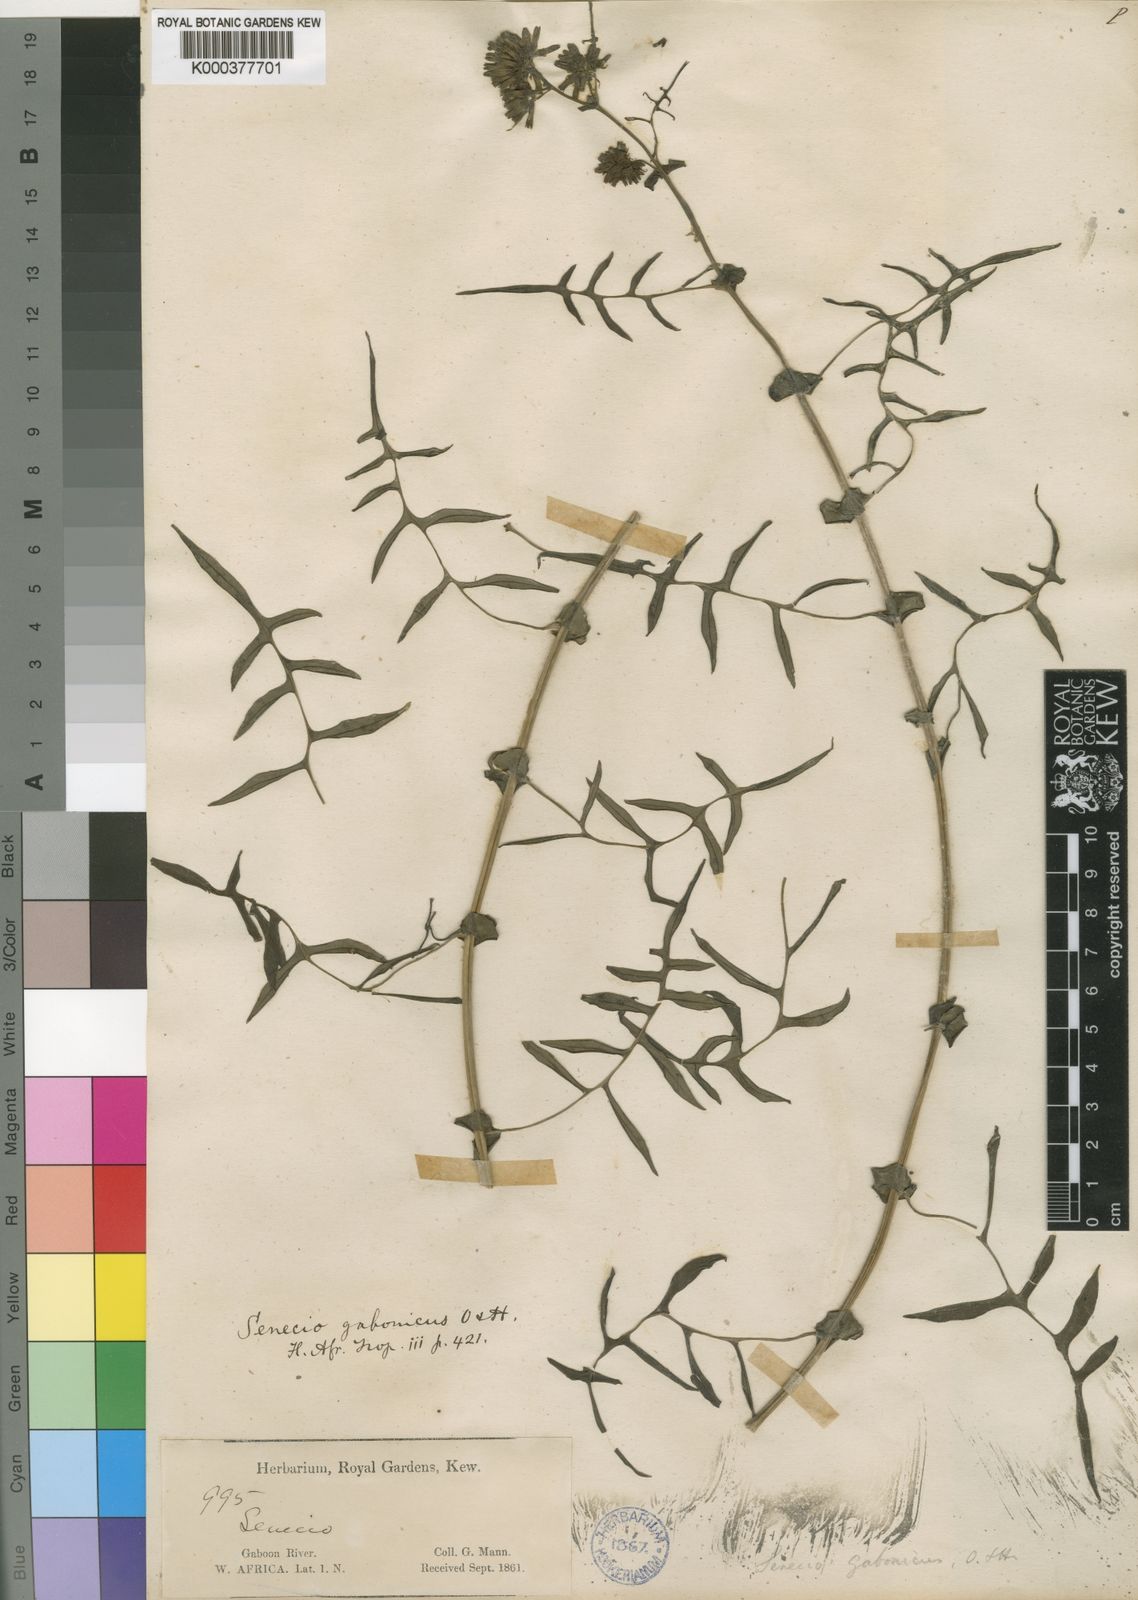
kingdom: Plantae
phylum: Tracheophyta
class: Magnoliopsida
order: Asterales
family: Asteraceae
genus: Solanecio
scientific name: Solanecio biafrae
